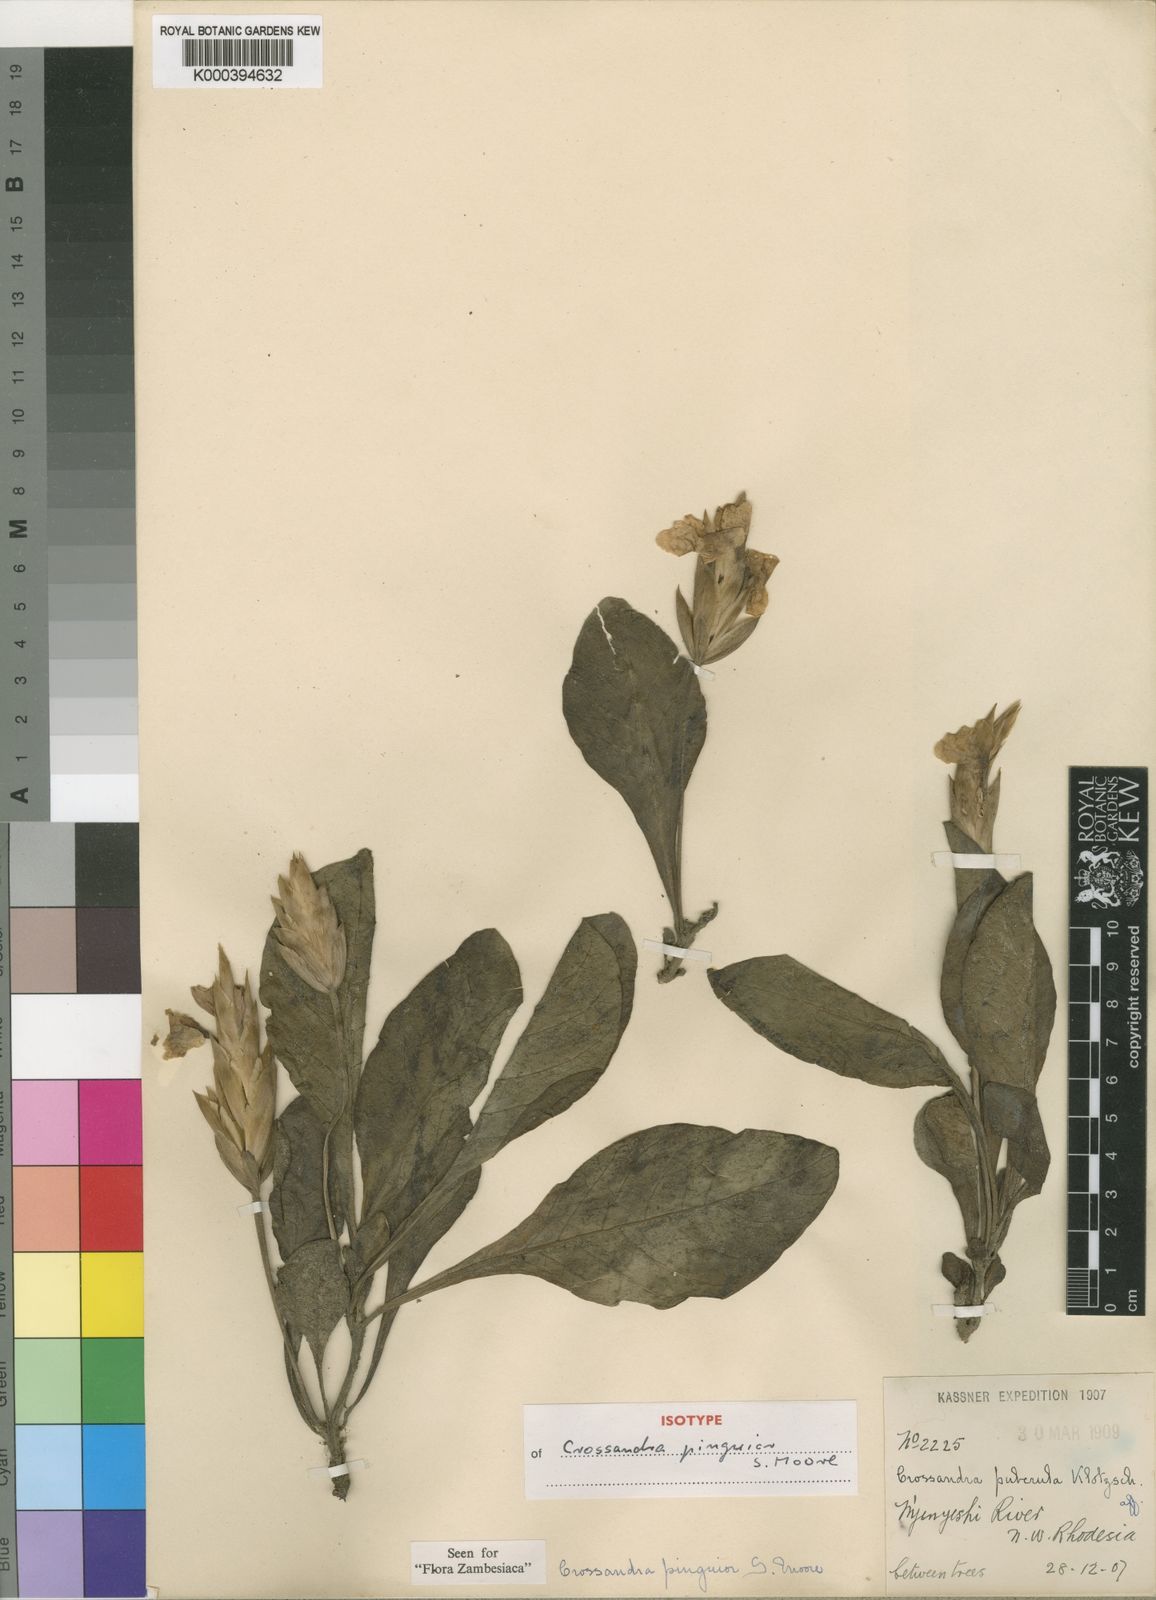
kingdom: Plantae
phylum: Tracheophyta
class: Magnoliopsida
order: Lamiales
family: Acanthaceae
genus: Crossandra
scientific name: Crossandra pinguior
